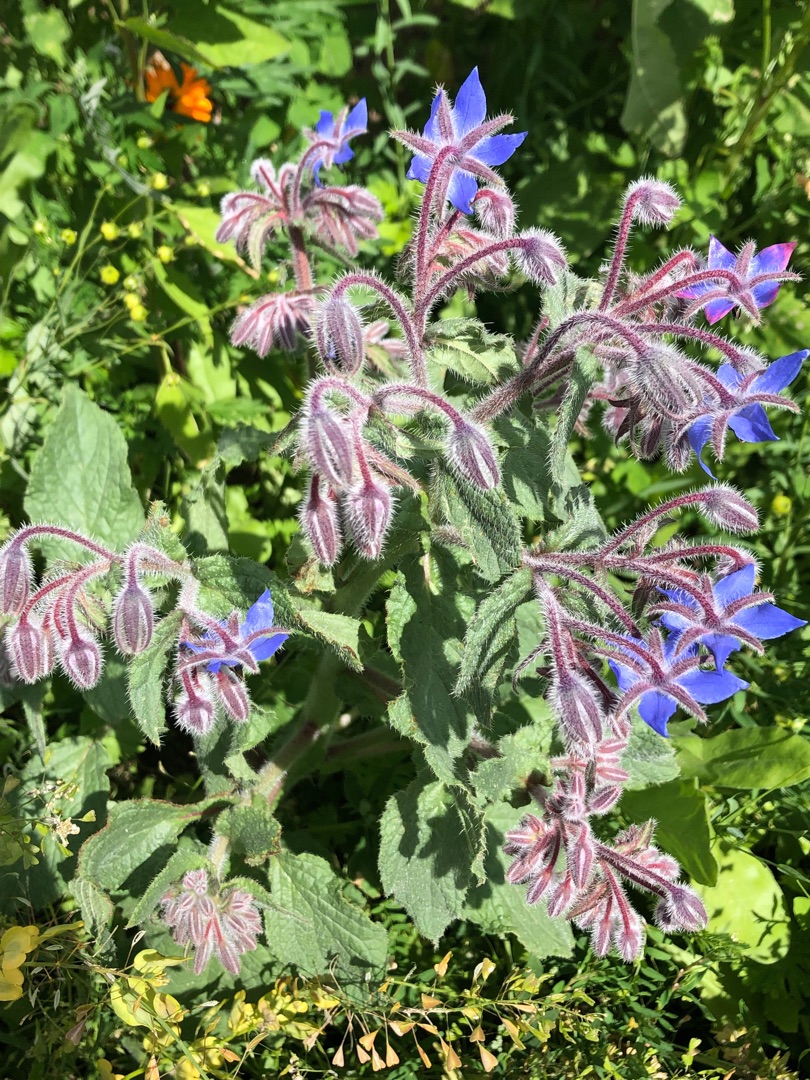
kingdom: Plantae
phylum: Tracheophyta
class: Magnoliopsida
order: Boraginales
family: Boraginaceae
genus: Borago
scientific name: Borago officinalis
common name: Hjulkrone
